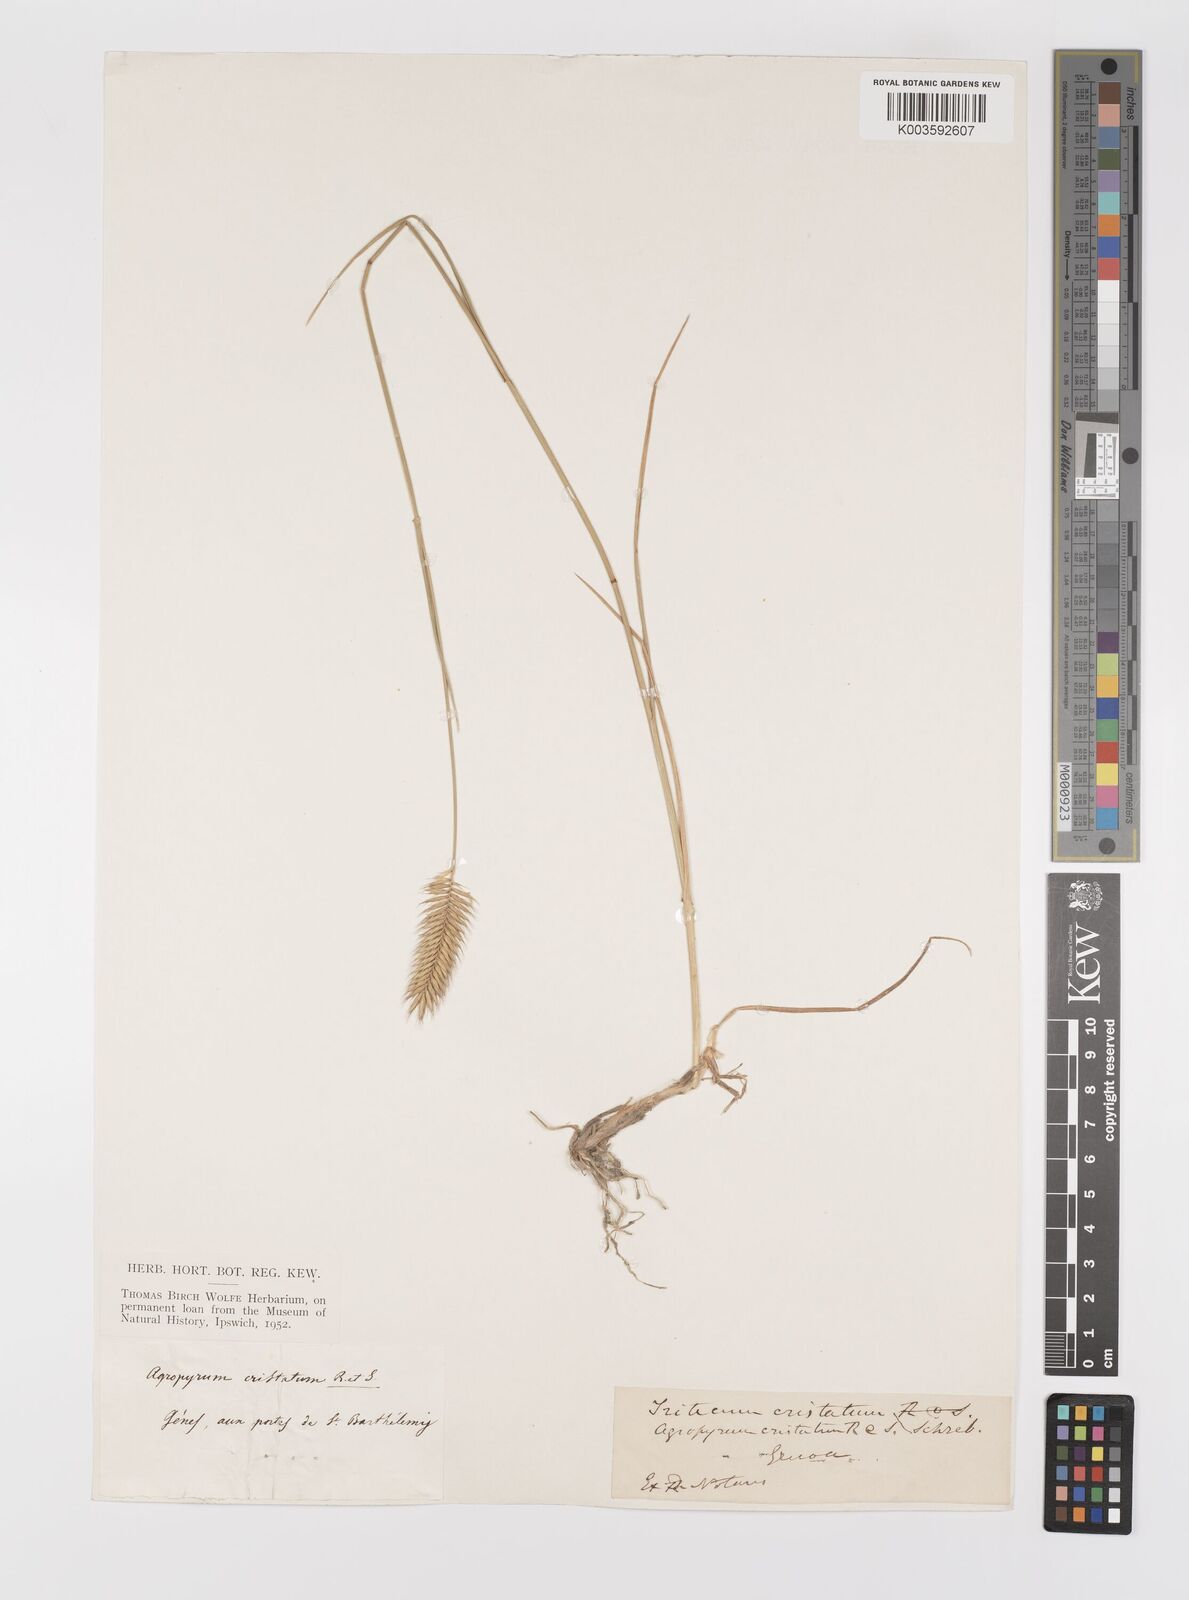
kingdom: Plantae
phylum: Tracheophyta
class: Liliopsida
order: Poales
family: Poaceae
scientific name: Poaceae
